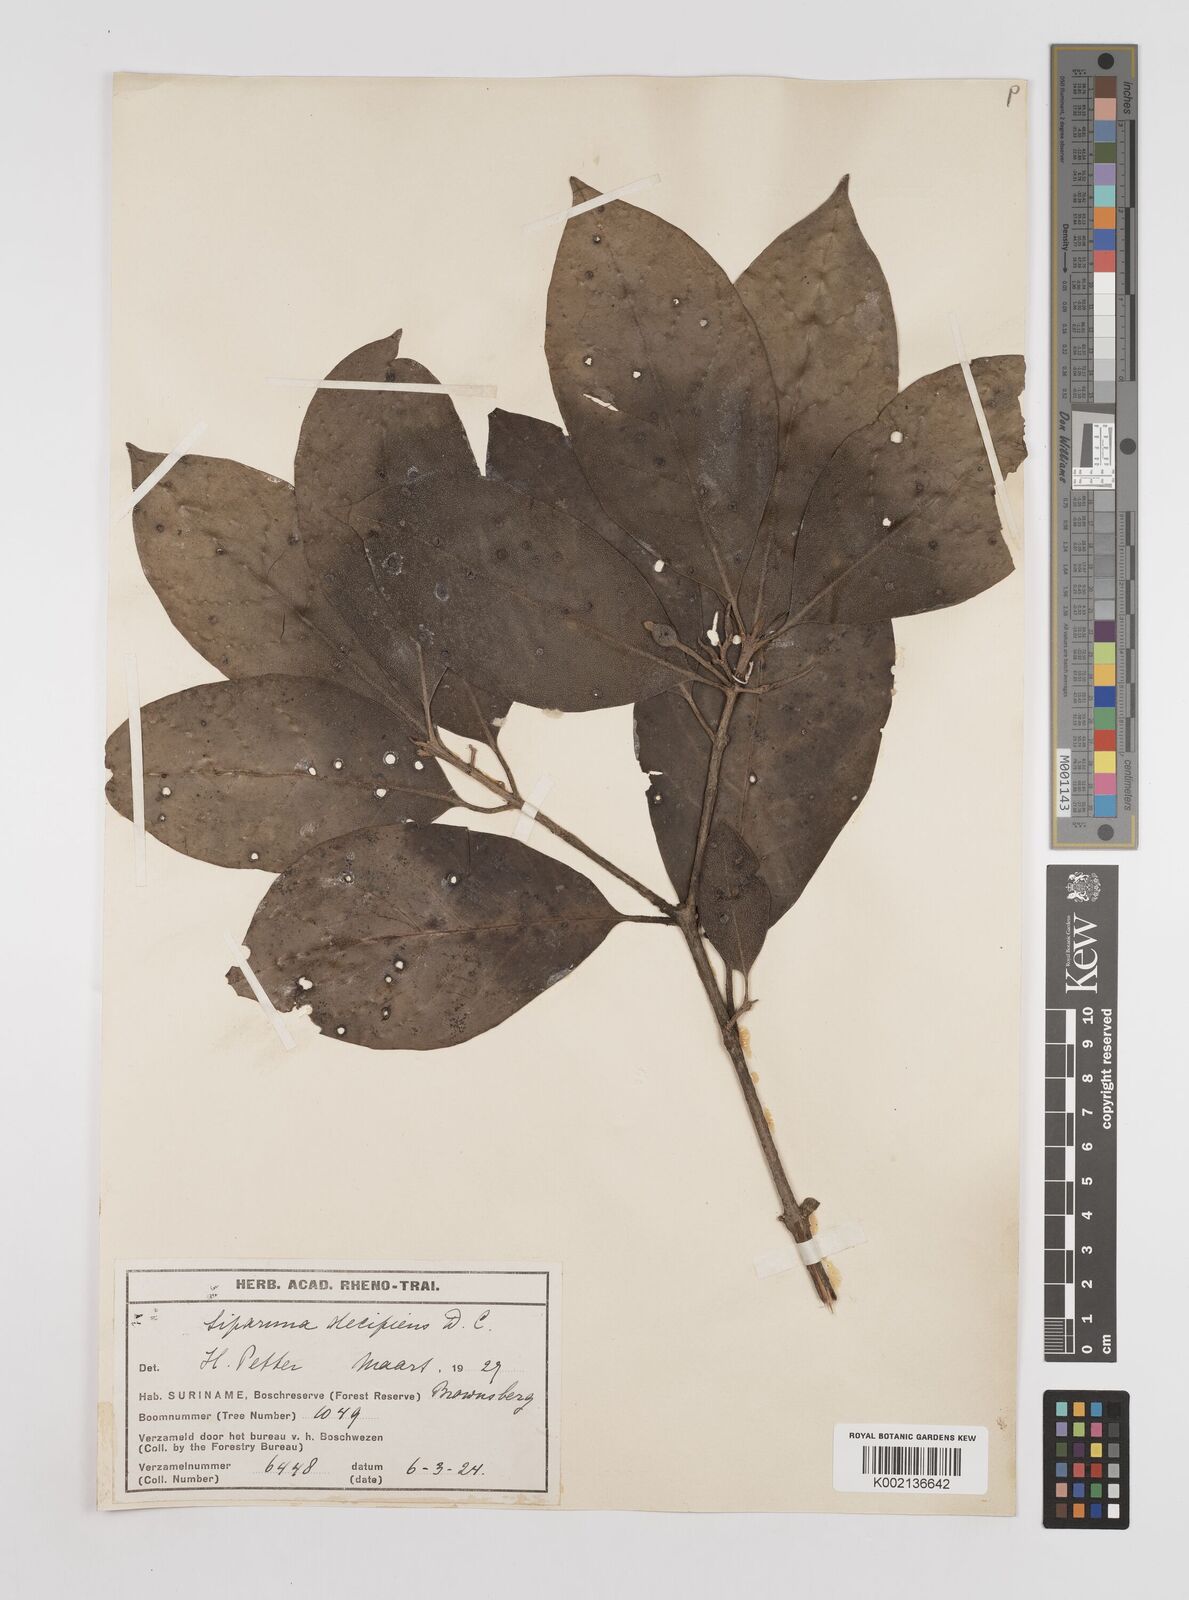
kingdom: Plantae
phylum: Tracheophyta
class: Magnoliopsida
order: Laurales
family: Siparunaceae
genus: Siparuna
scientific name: Siparuna decipiens
